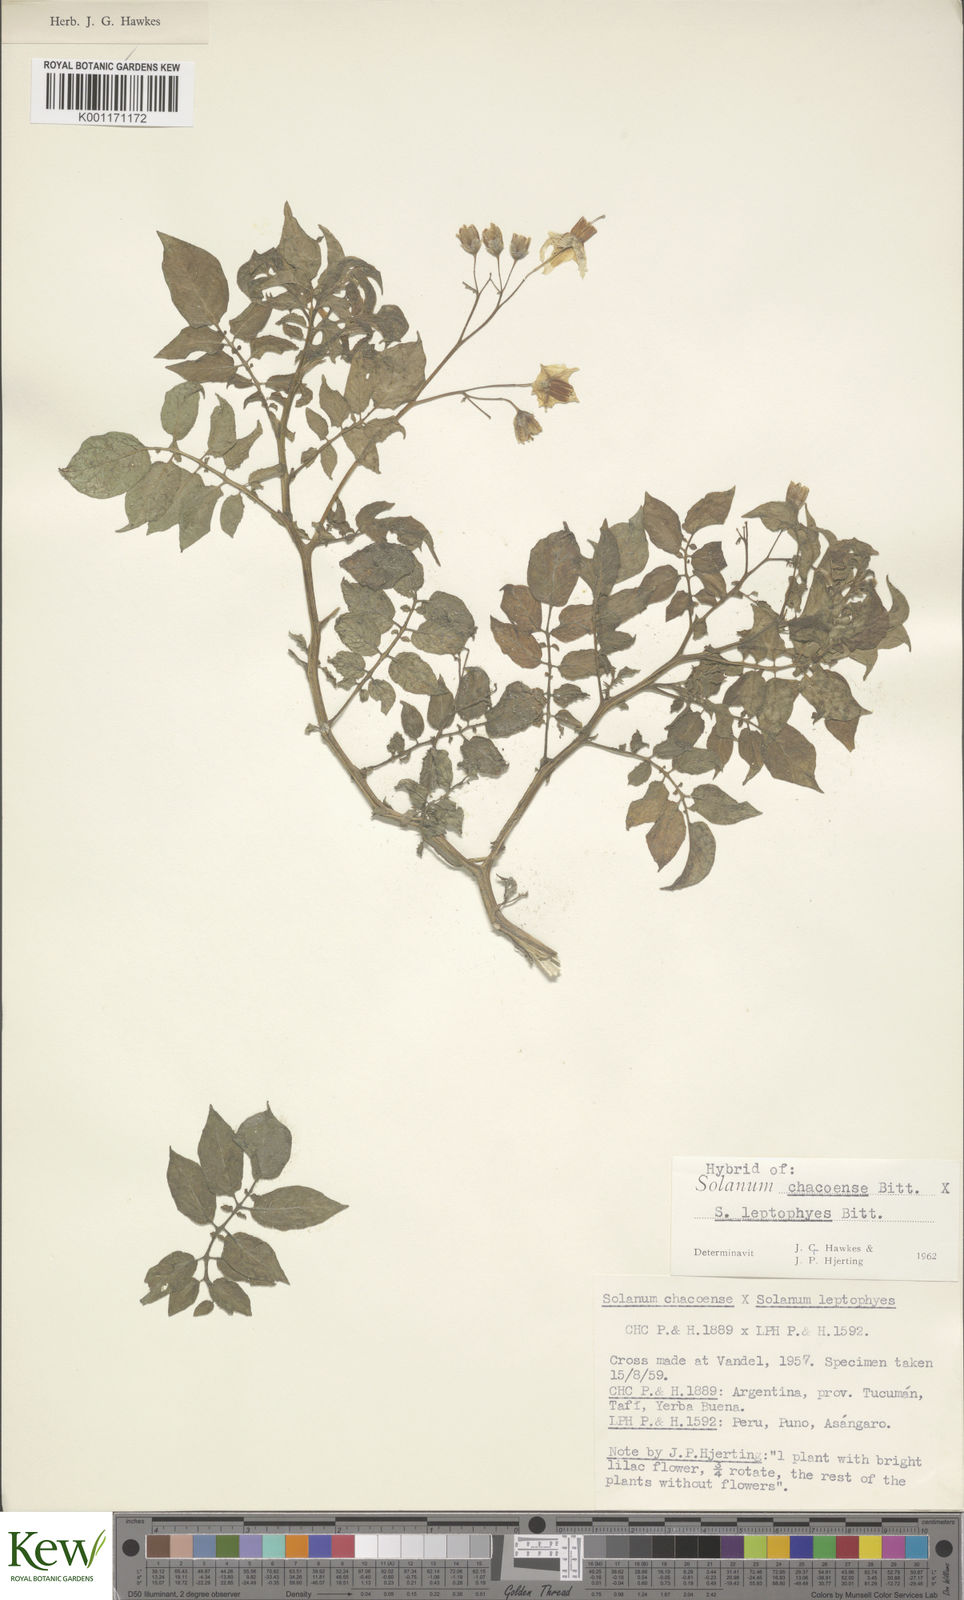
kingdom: Plantae
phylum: Tracheophyta
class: Magnoliopsida
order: Solanales
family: Solanaceae
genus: Solanum
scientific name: Solanum chacoense
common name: Chaco potato
